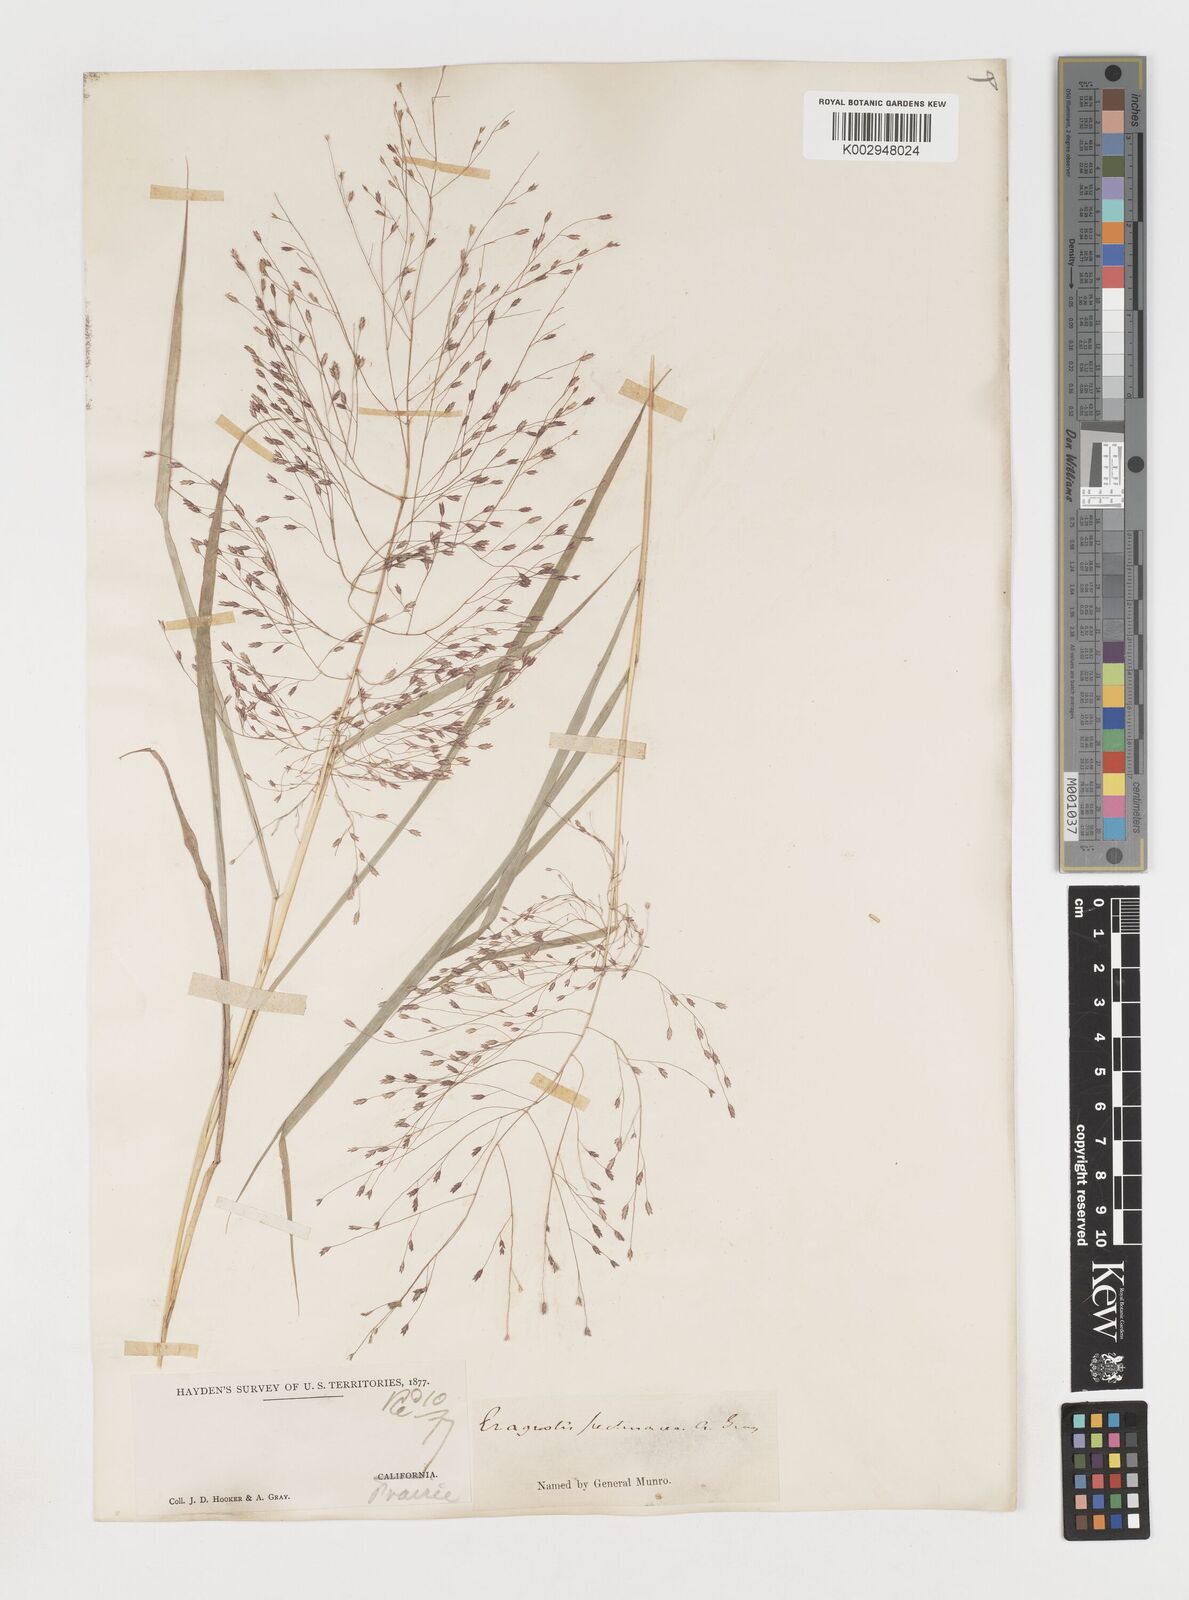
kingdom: Plantae
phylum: Tracheophyta
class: Liliopsida
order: Poales
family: Poaceae
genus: Eragrostis
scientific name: Eragrostis spectabilis
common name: Petticoat-climber
